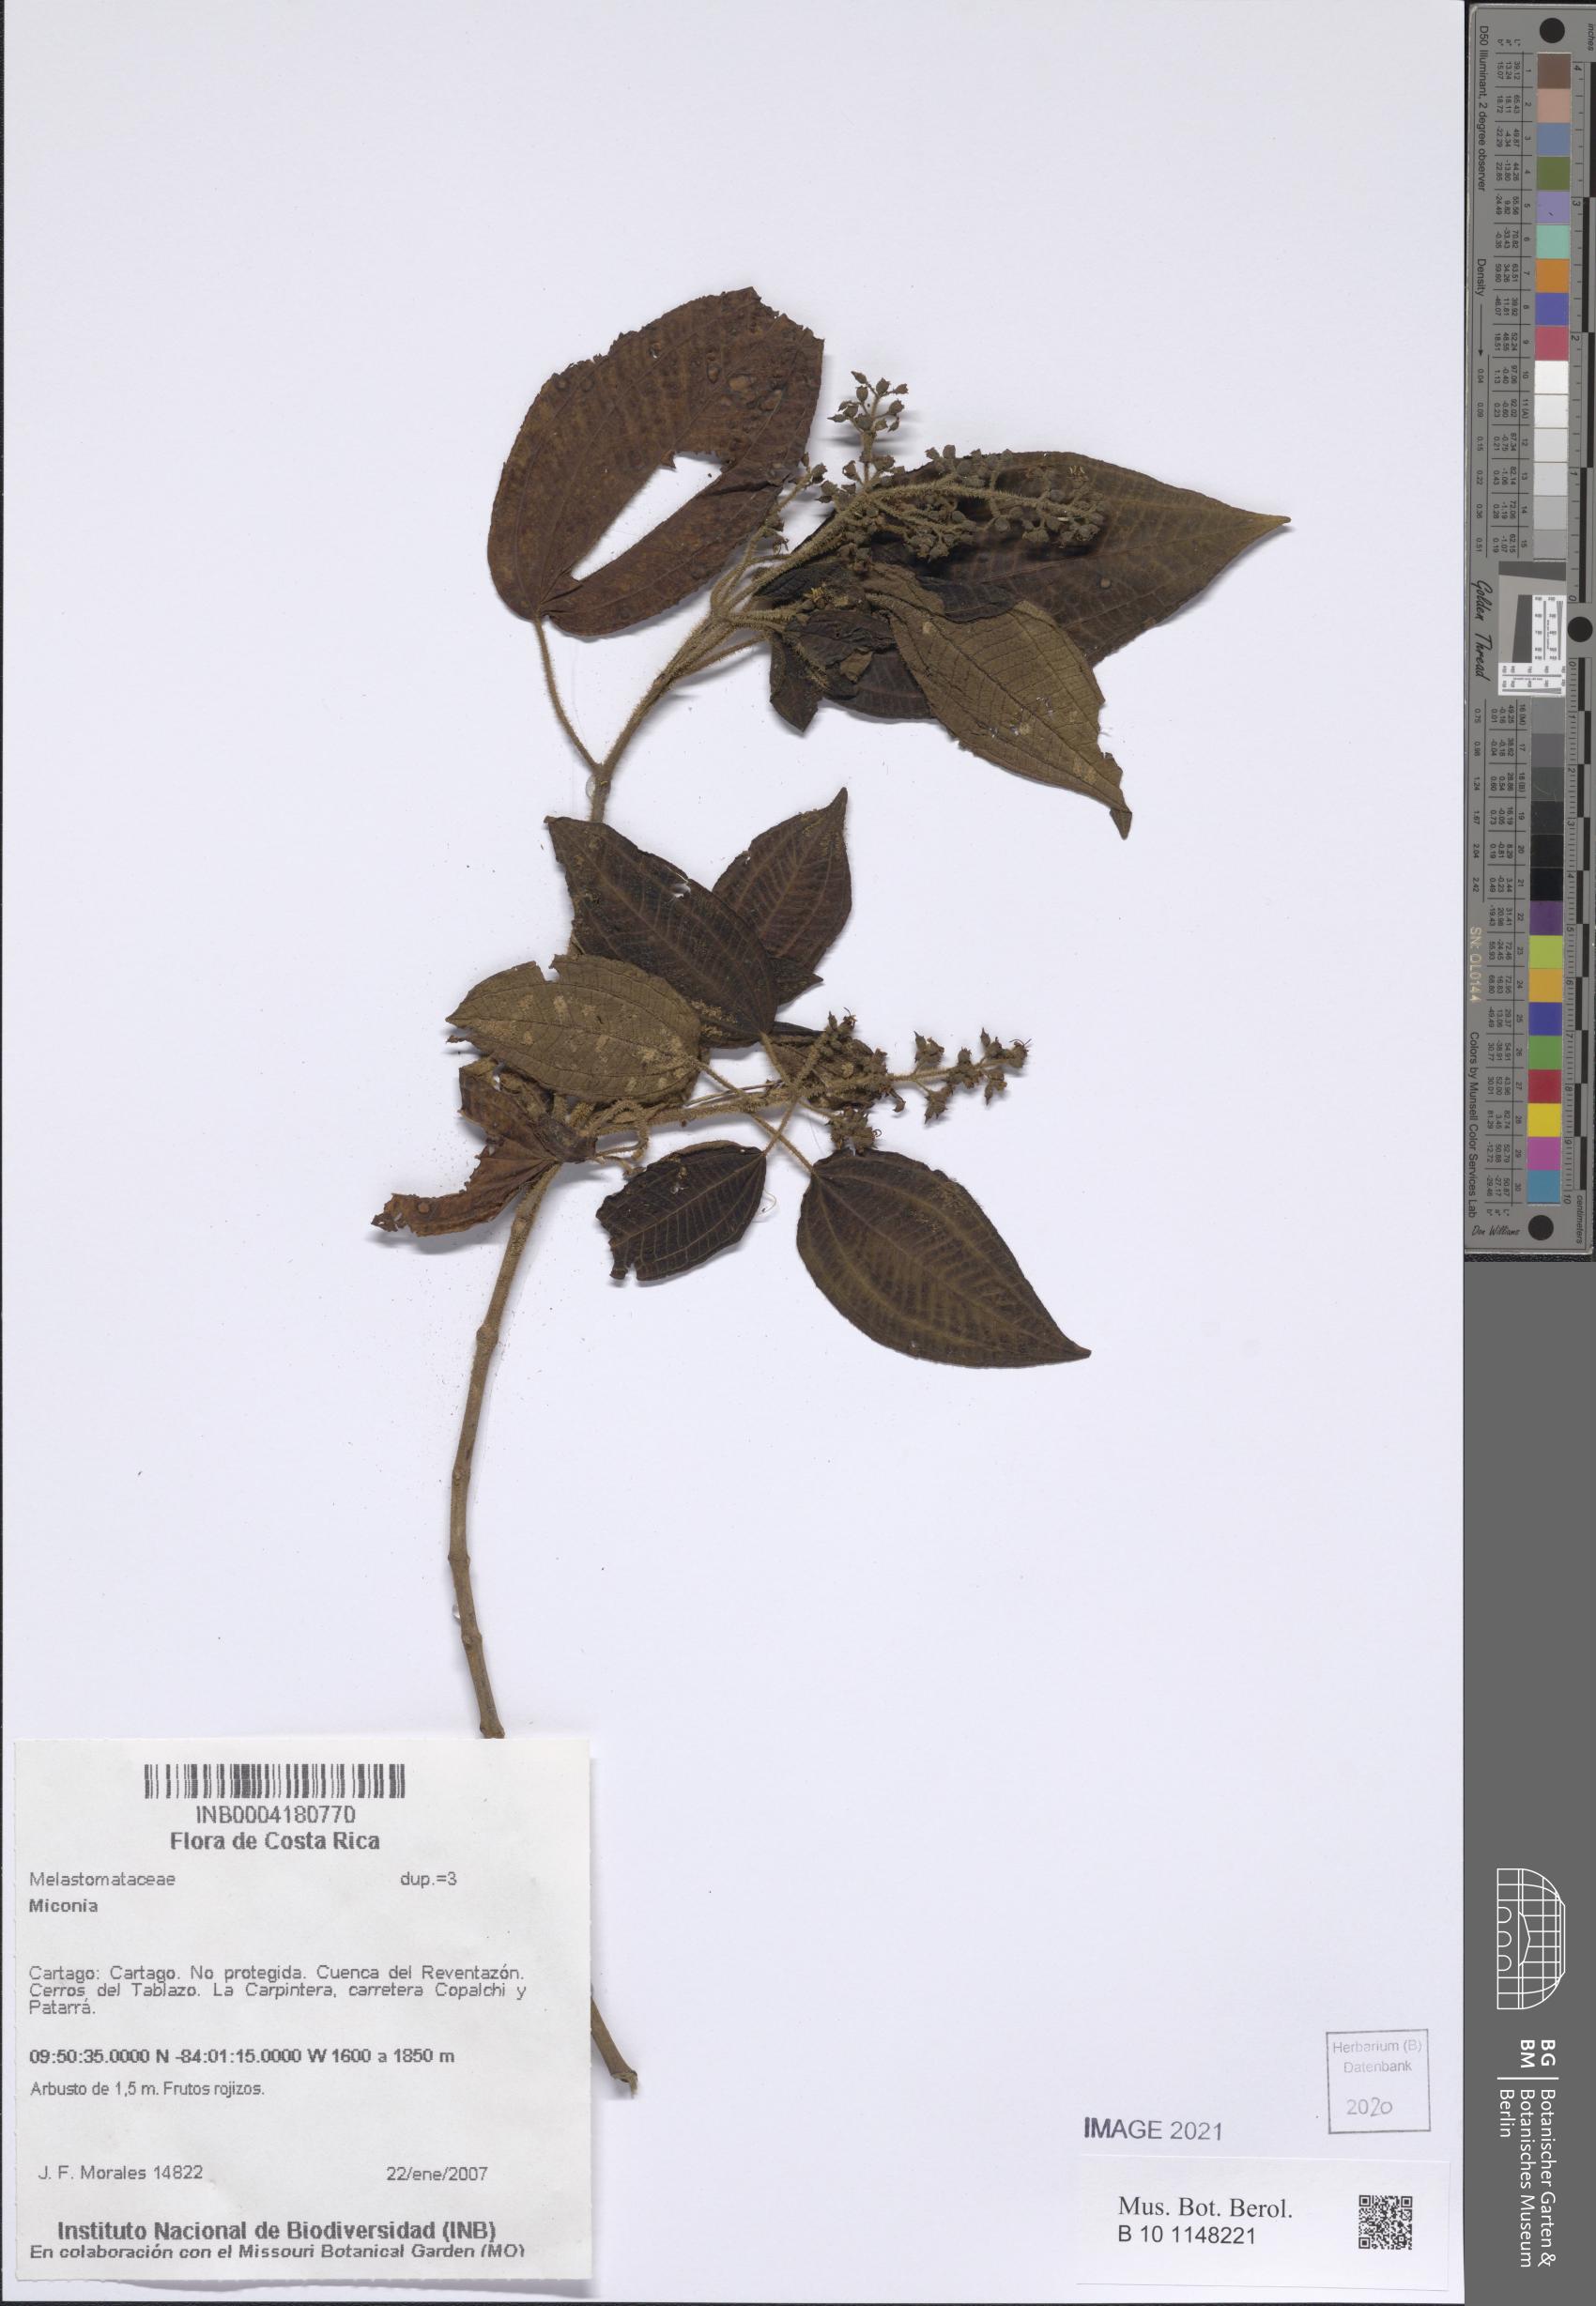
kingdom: Plantae
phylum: Tracheophyta
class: Magnoliopsida
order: Myrtales
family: Melastomataceae
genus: Miconia
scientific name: Miconia
